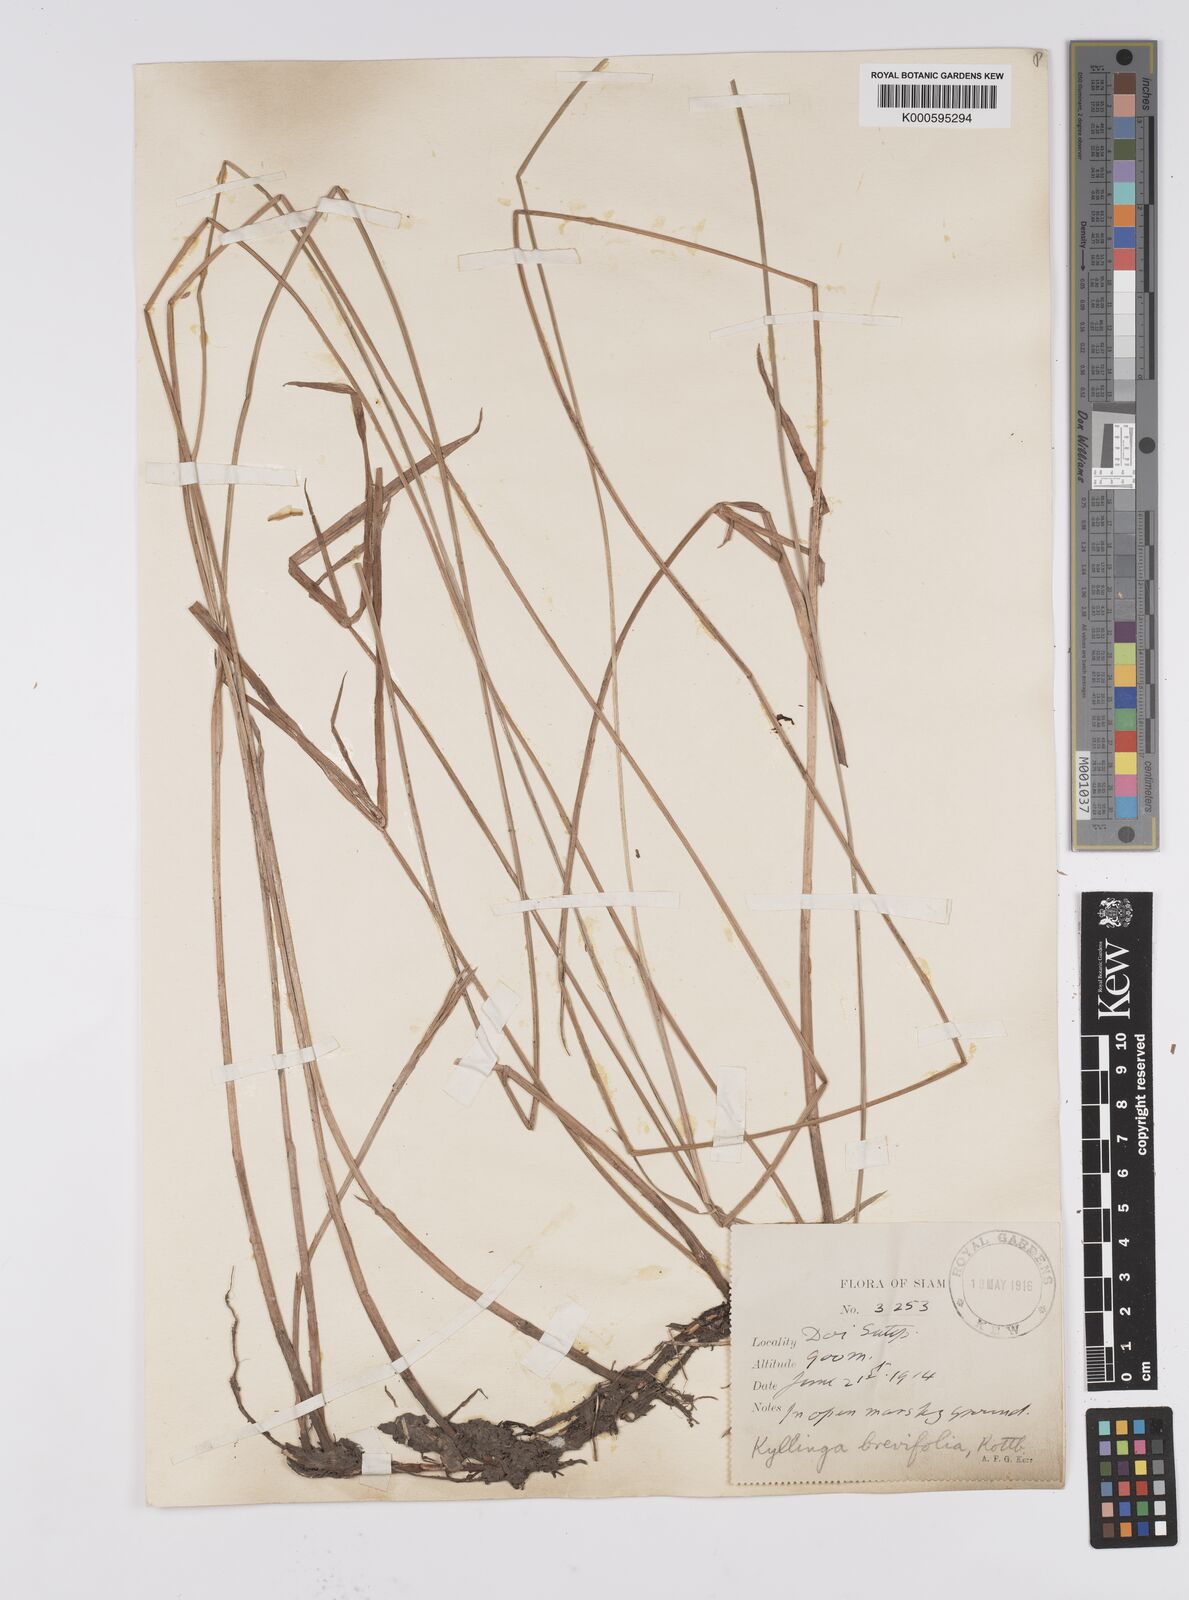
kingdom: Plantae
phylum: Tracheophyta
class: Liliopsida
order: Poales
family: Cyperaceae
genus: Cyperus
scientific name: Cyperus brevifolius
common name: Globe kyllinga
